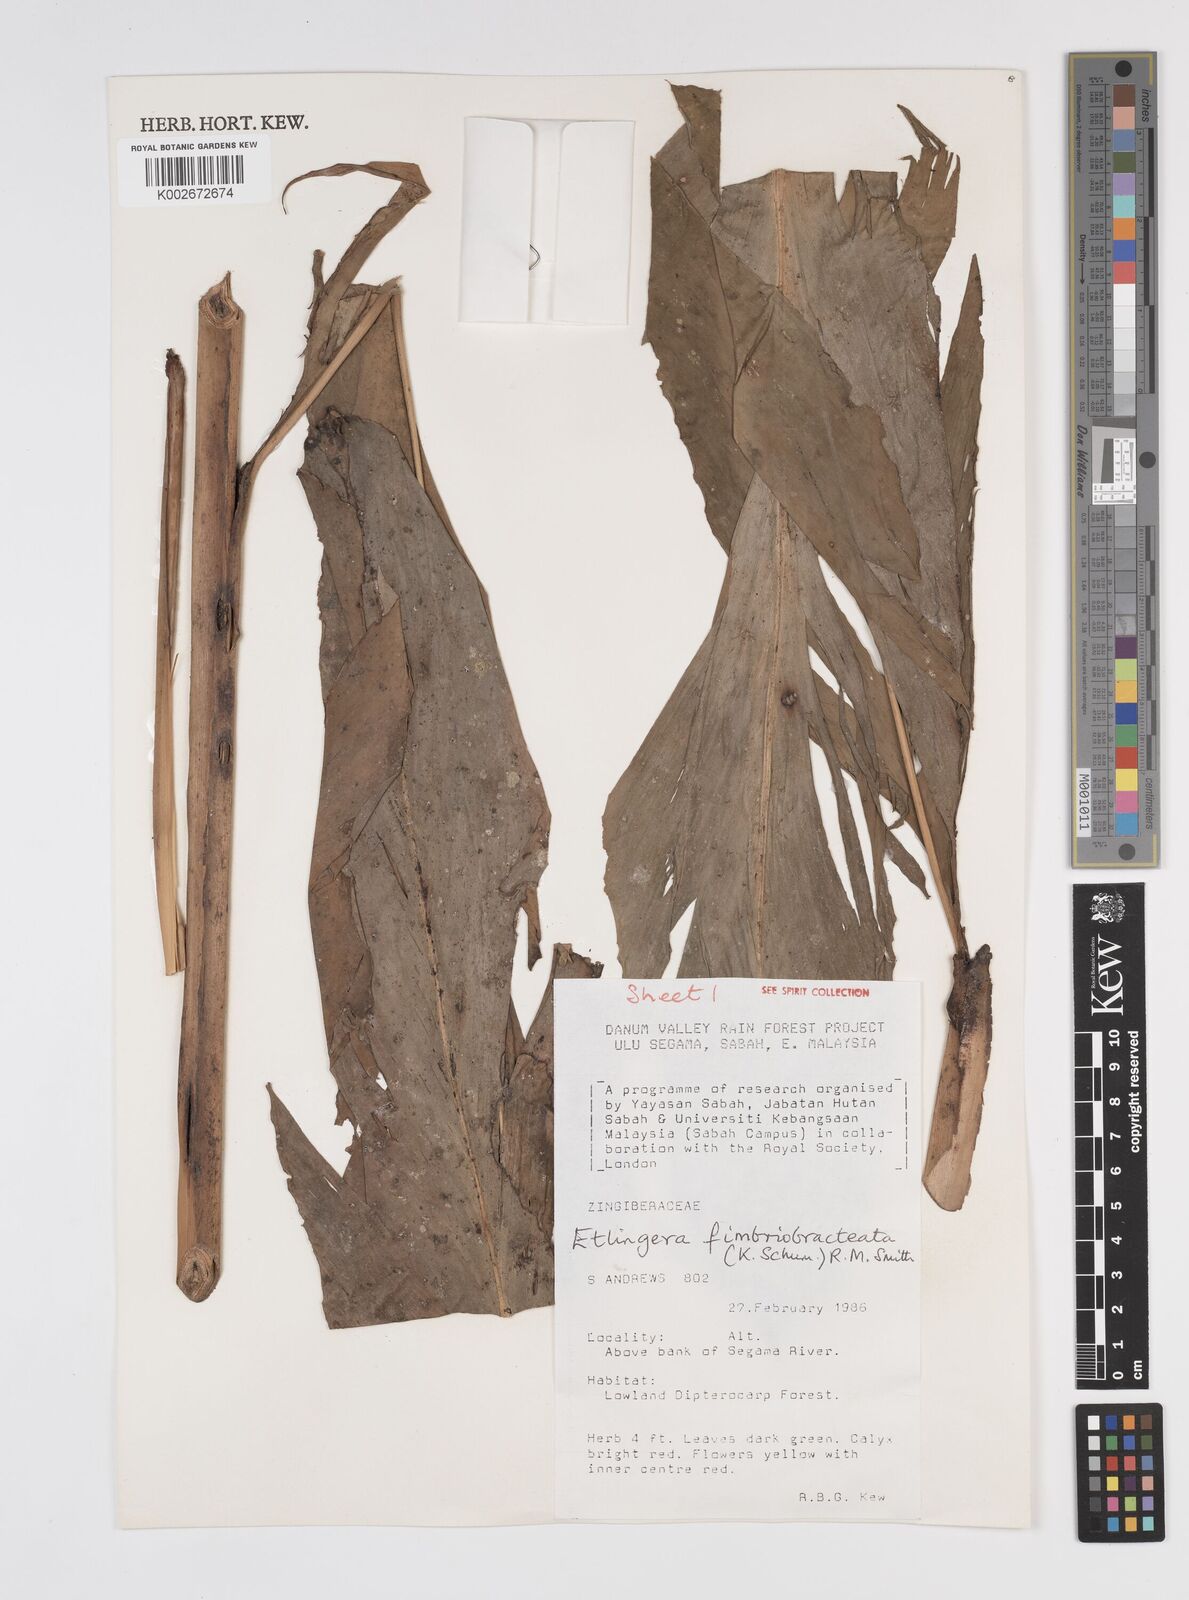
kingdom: Plantae
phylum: Tracheophyta
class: Liliopsida
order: Zingiberales
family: Zingiberaceae
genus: Etlingera
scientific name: Etlingera fimbriobracteata
